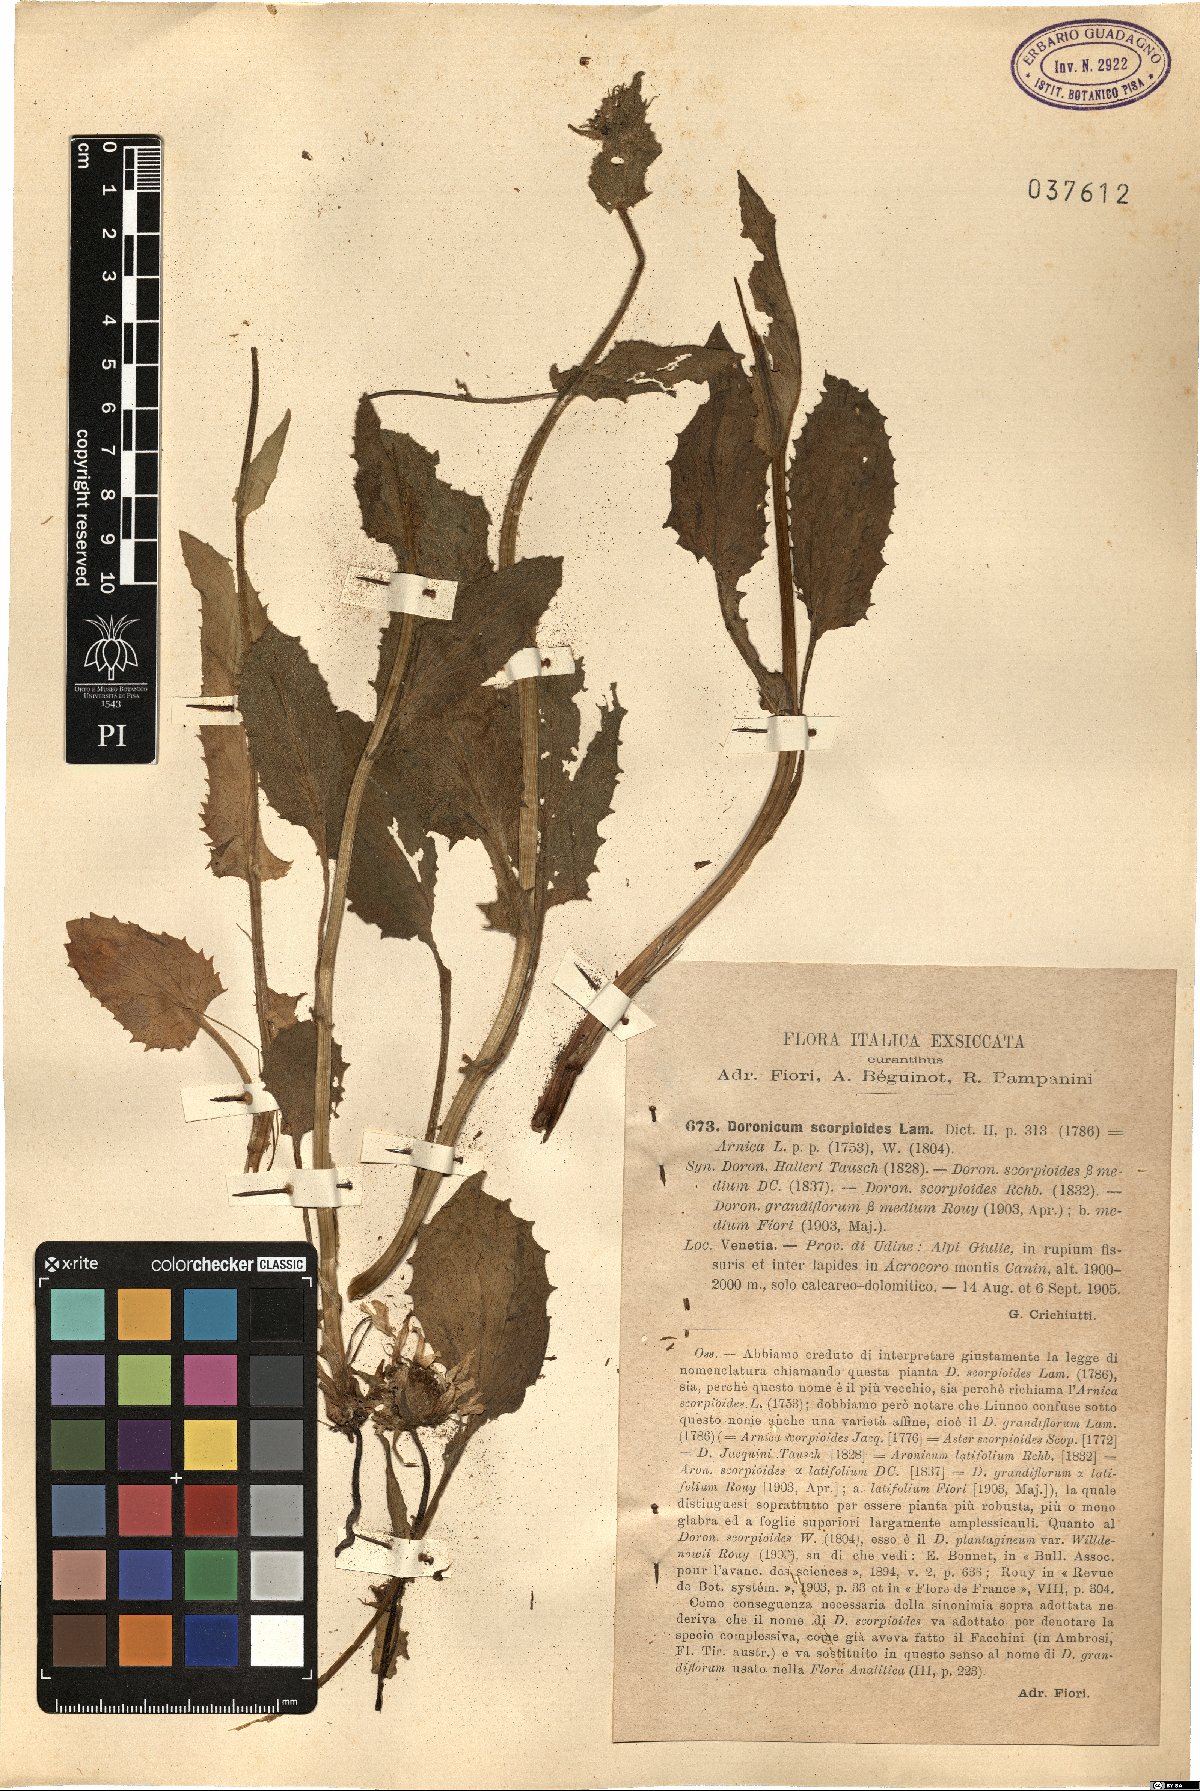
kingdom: Plantae
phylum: Tracheophyta
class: Magnoliopsida
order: Asterales
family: Asteraceae
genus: Doronicum
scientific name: Doronicum grandiflorum
